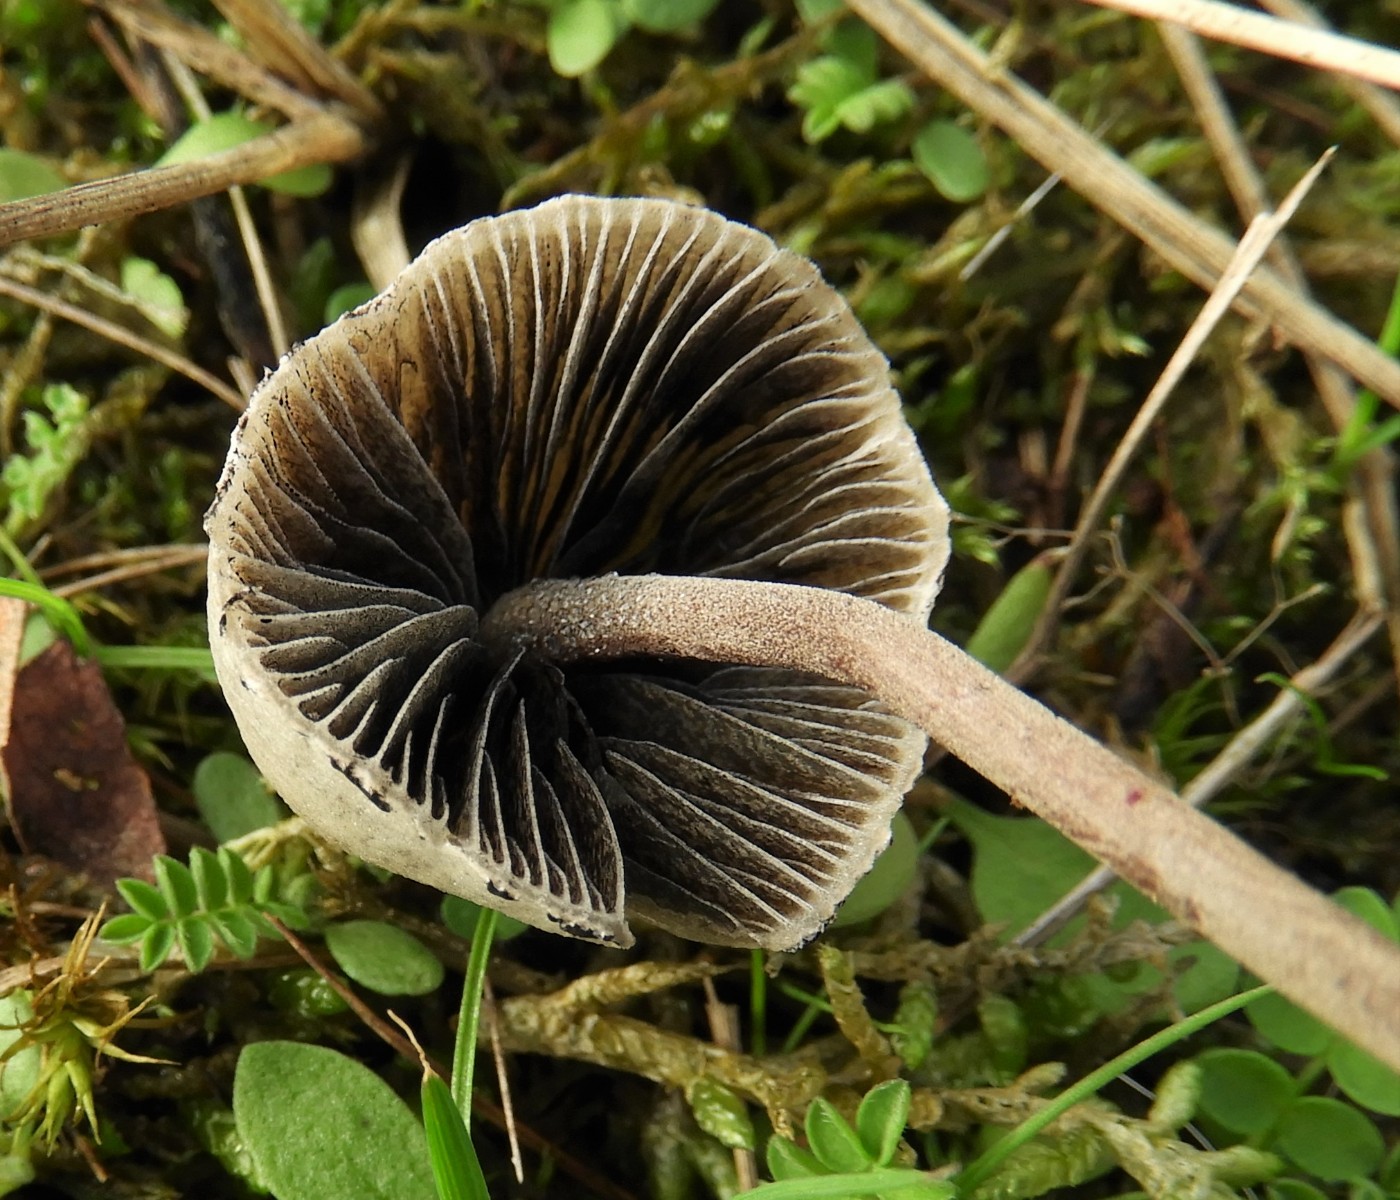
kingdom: Fungi
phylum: Basidiomycota
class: Agaricomycetes
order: Agaricales
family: Bolbitiaceae
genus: Panaeolus
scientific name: Panaeolus papilionaceus
